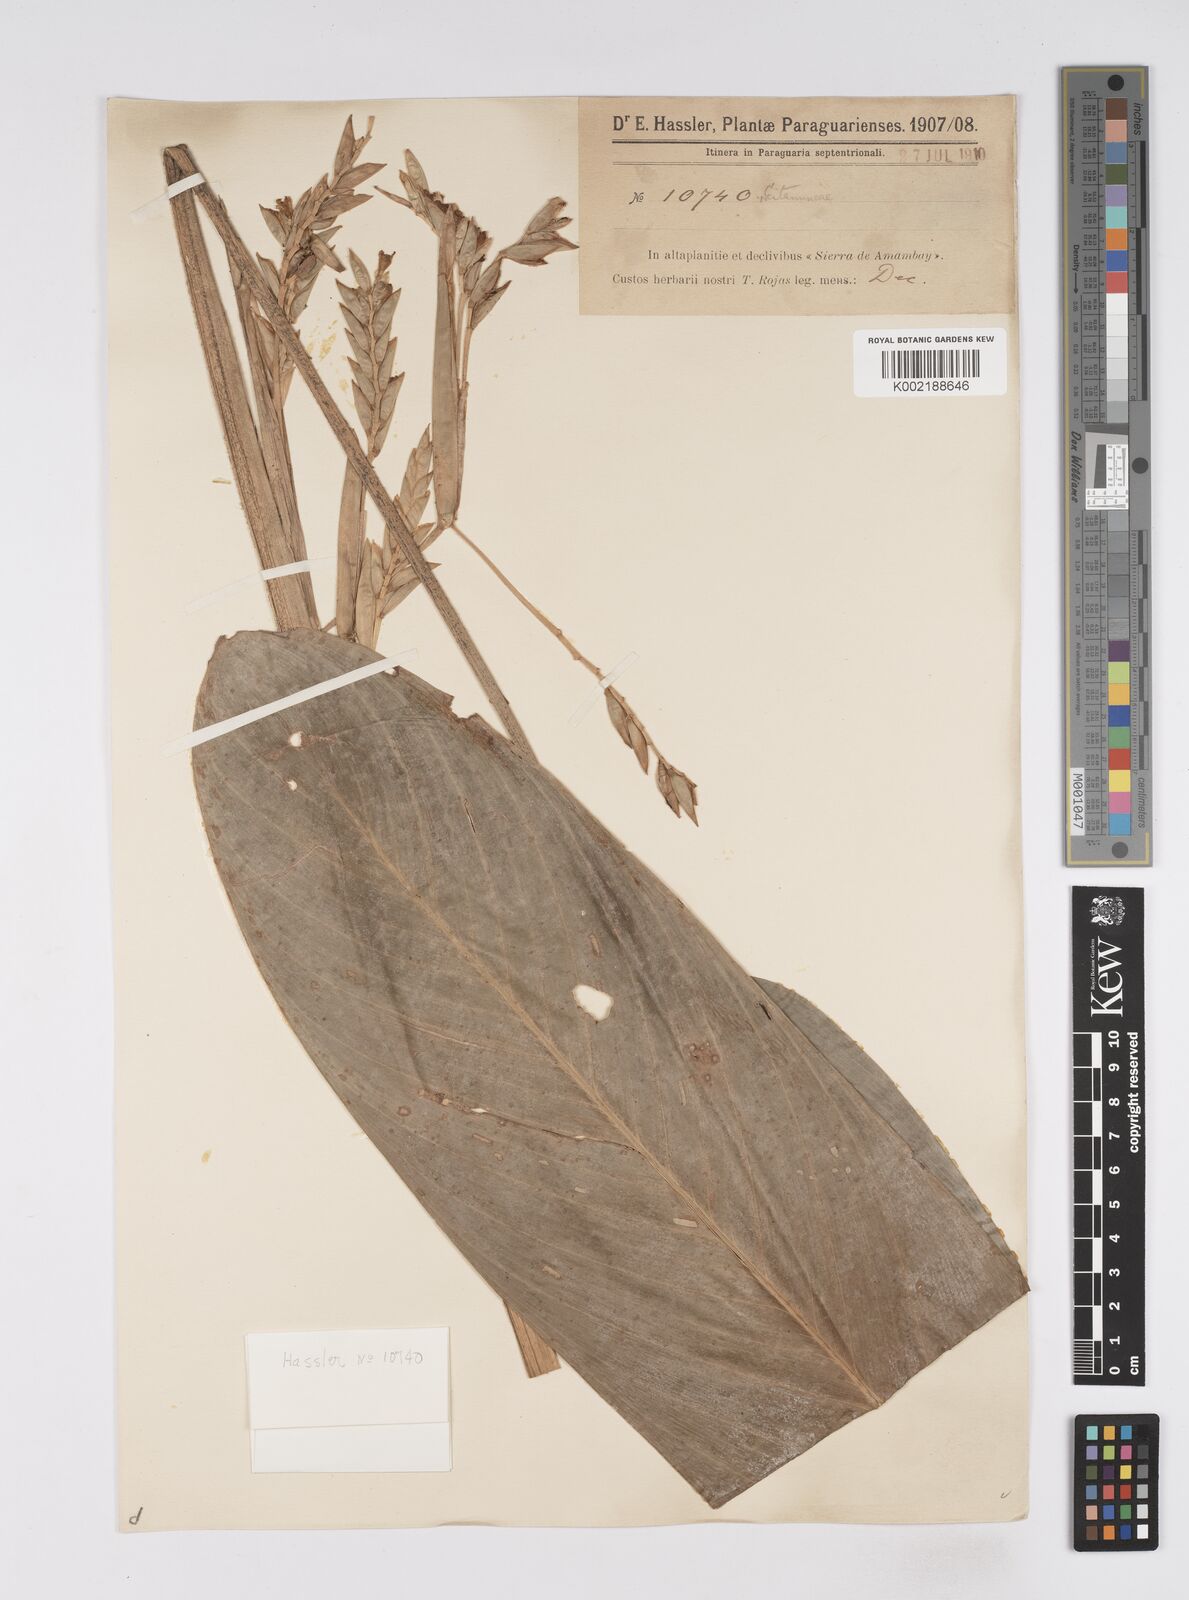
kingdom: Plantae
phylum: Tracheophyta
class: Liliopsida
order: Zingiberales
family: Marantaceae
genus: Saranthe
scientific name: Saranthe eichleri
